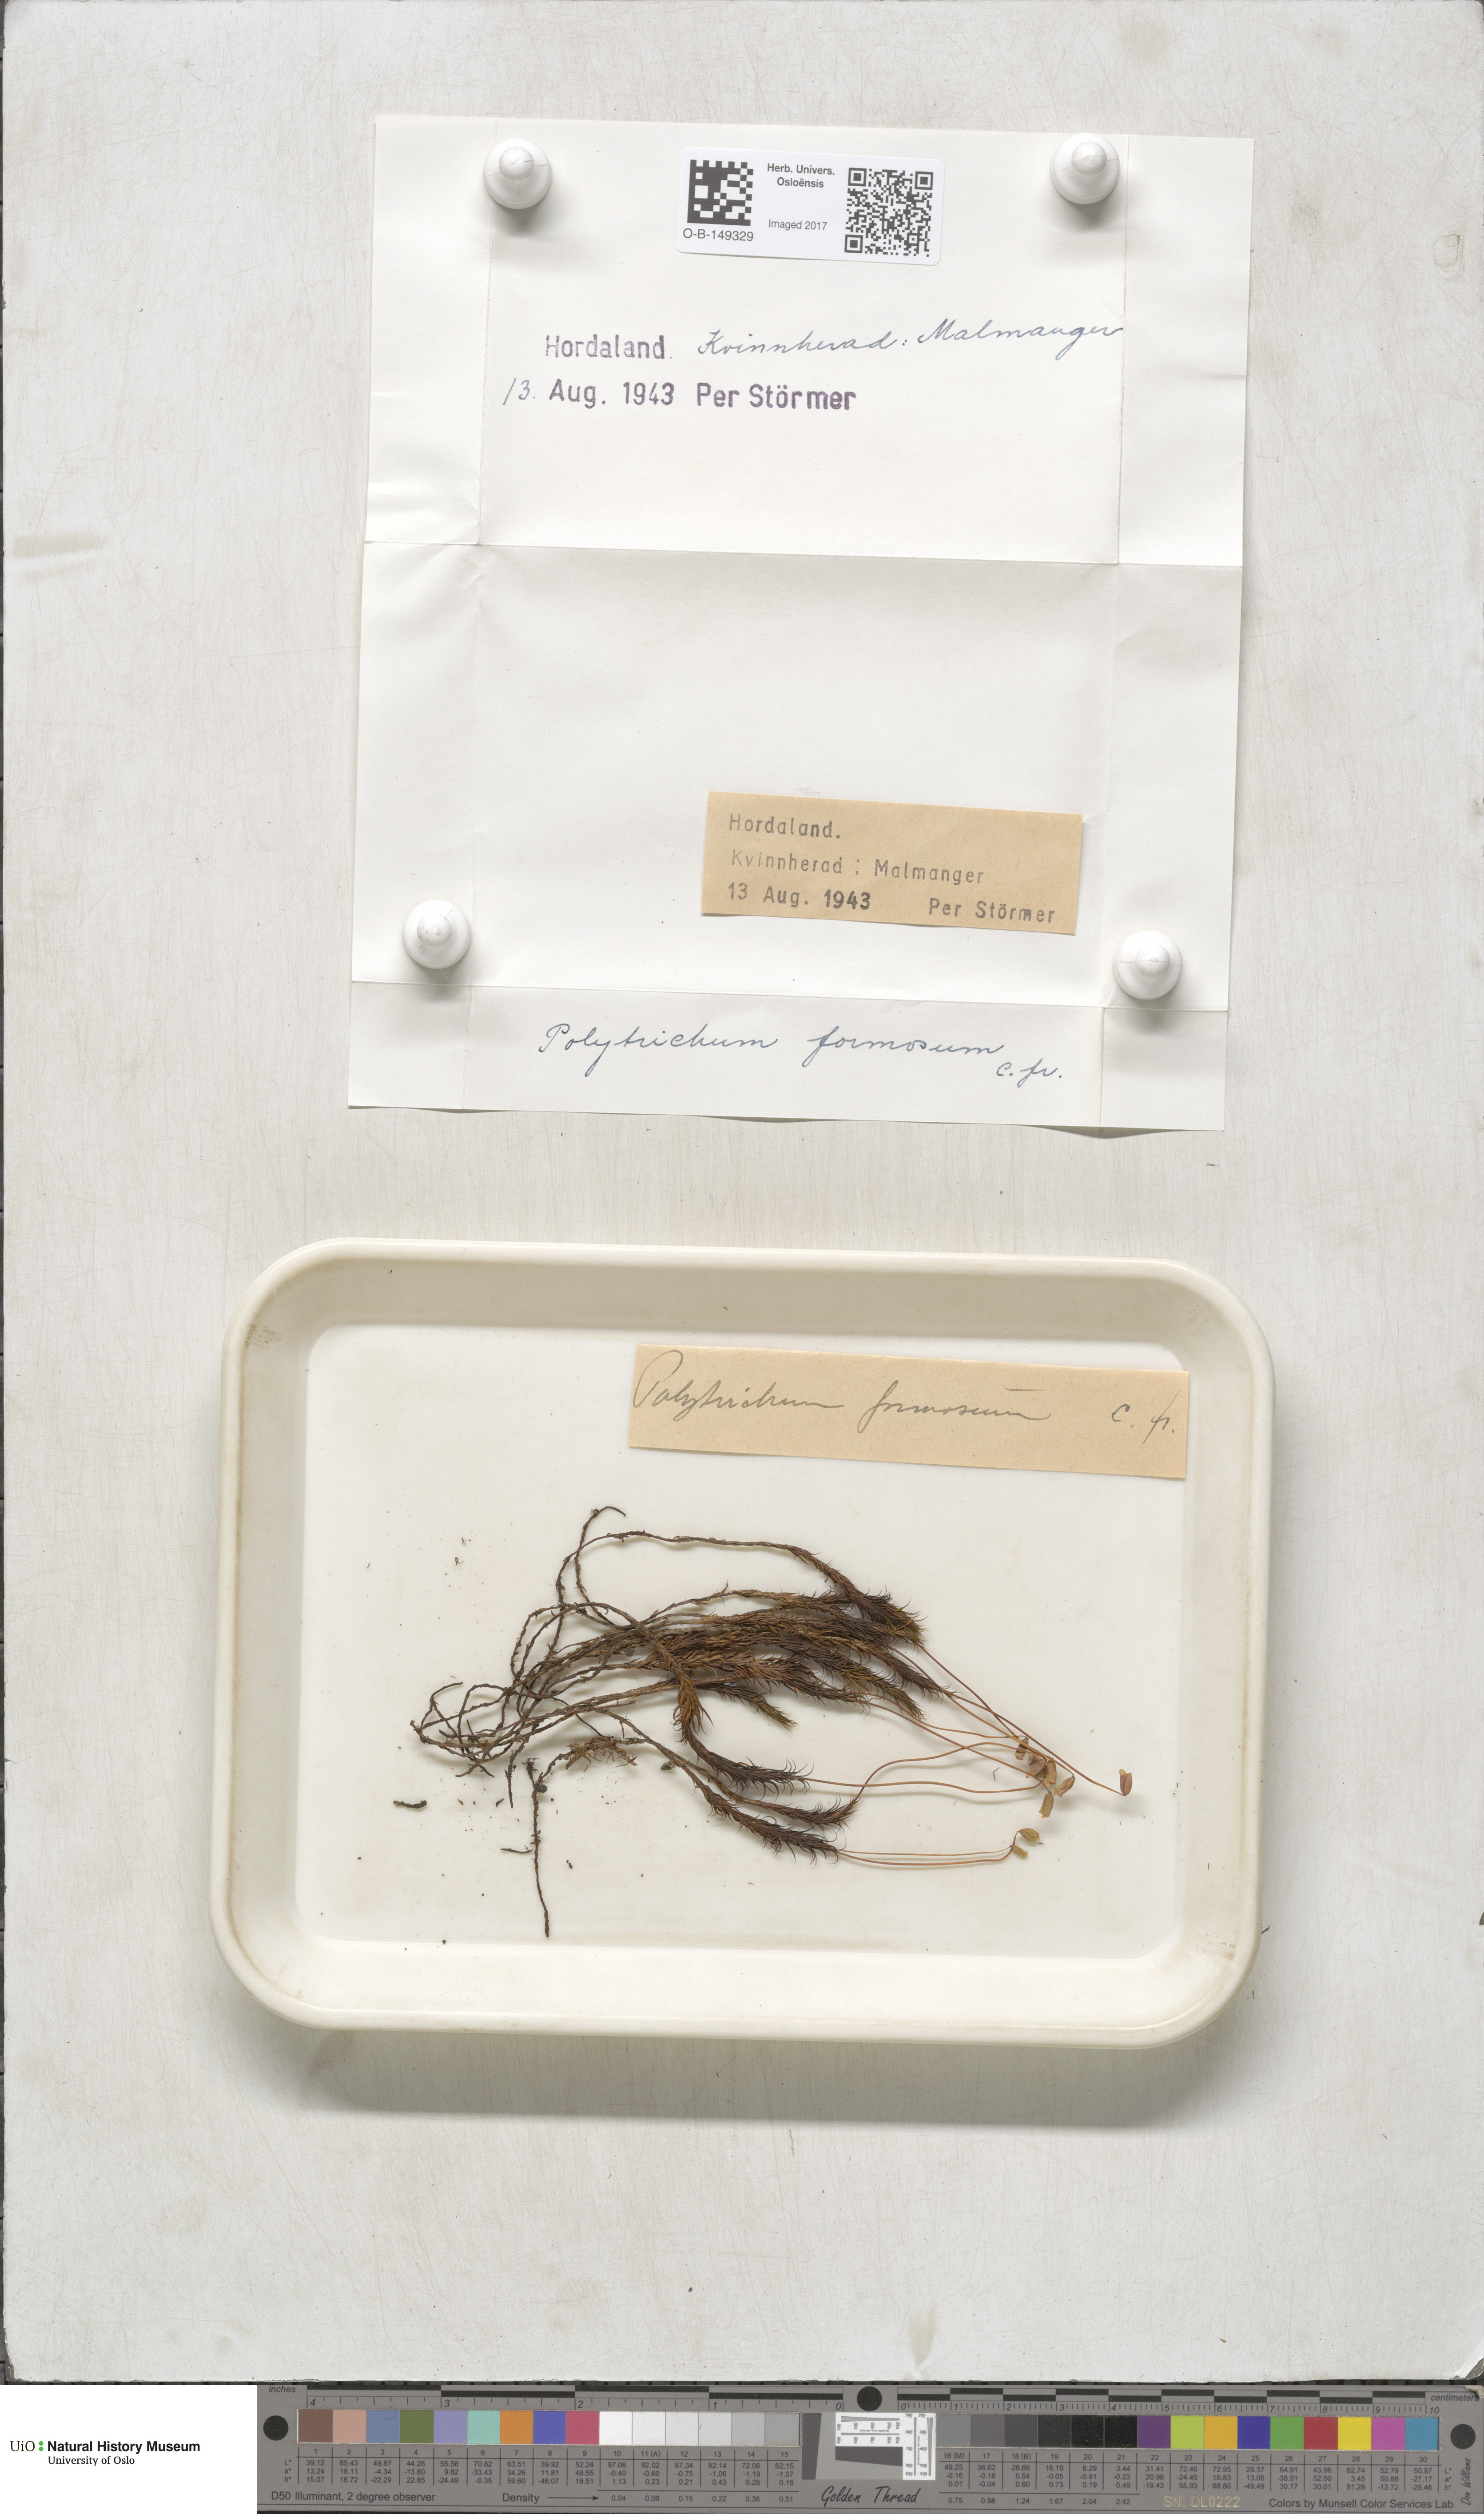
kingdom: Plantae
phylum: Bryophyta
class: Polytrichopsida
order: Polytrichales
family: Polytrichaceae
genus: Polytrichum
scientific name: Polytrichum formosum
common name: Bank haircap moss
